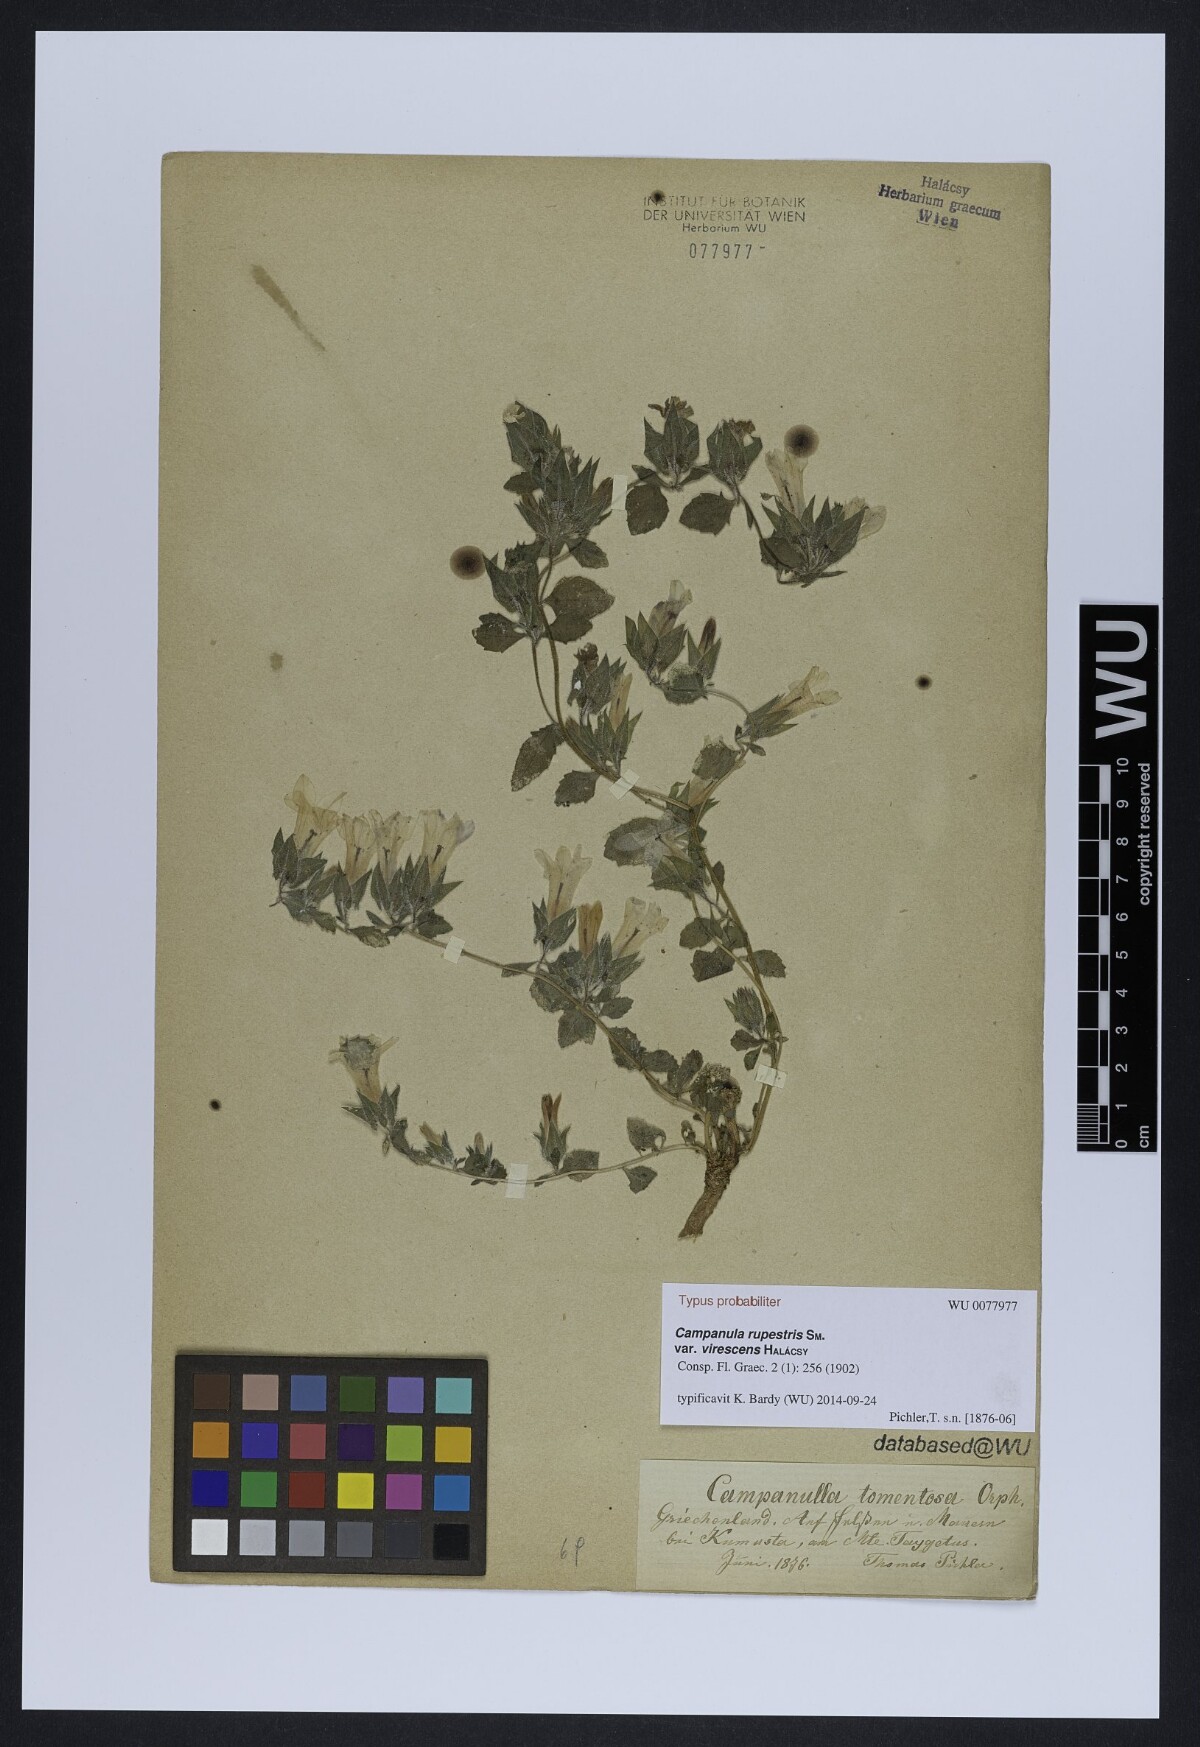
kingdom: Plantae
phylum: Tracheophyta
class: Magnoliopsida
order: Asterales
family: Campanulaceae
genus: Campanula
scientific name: Campanula constantini
